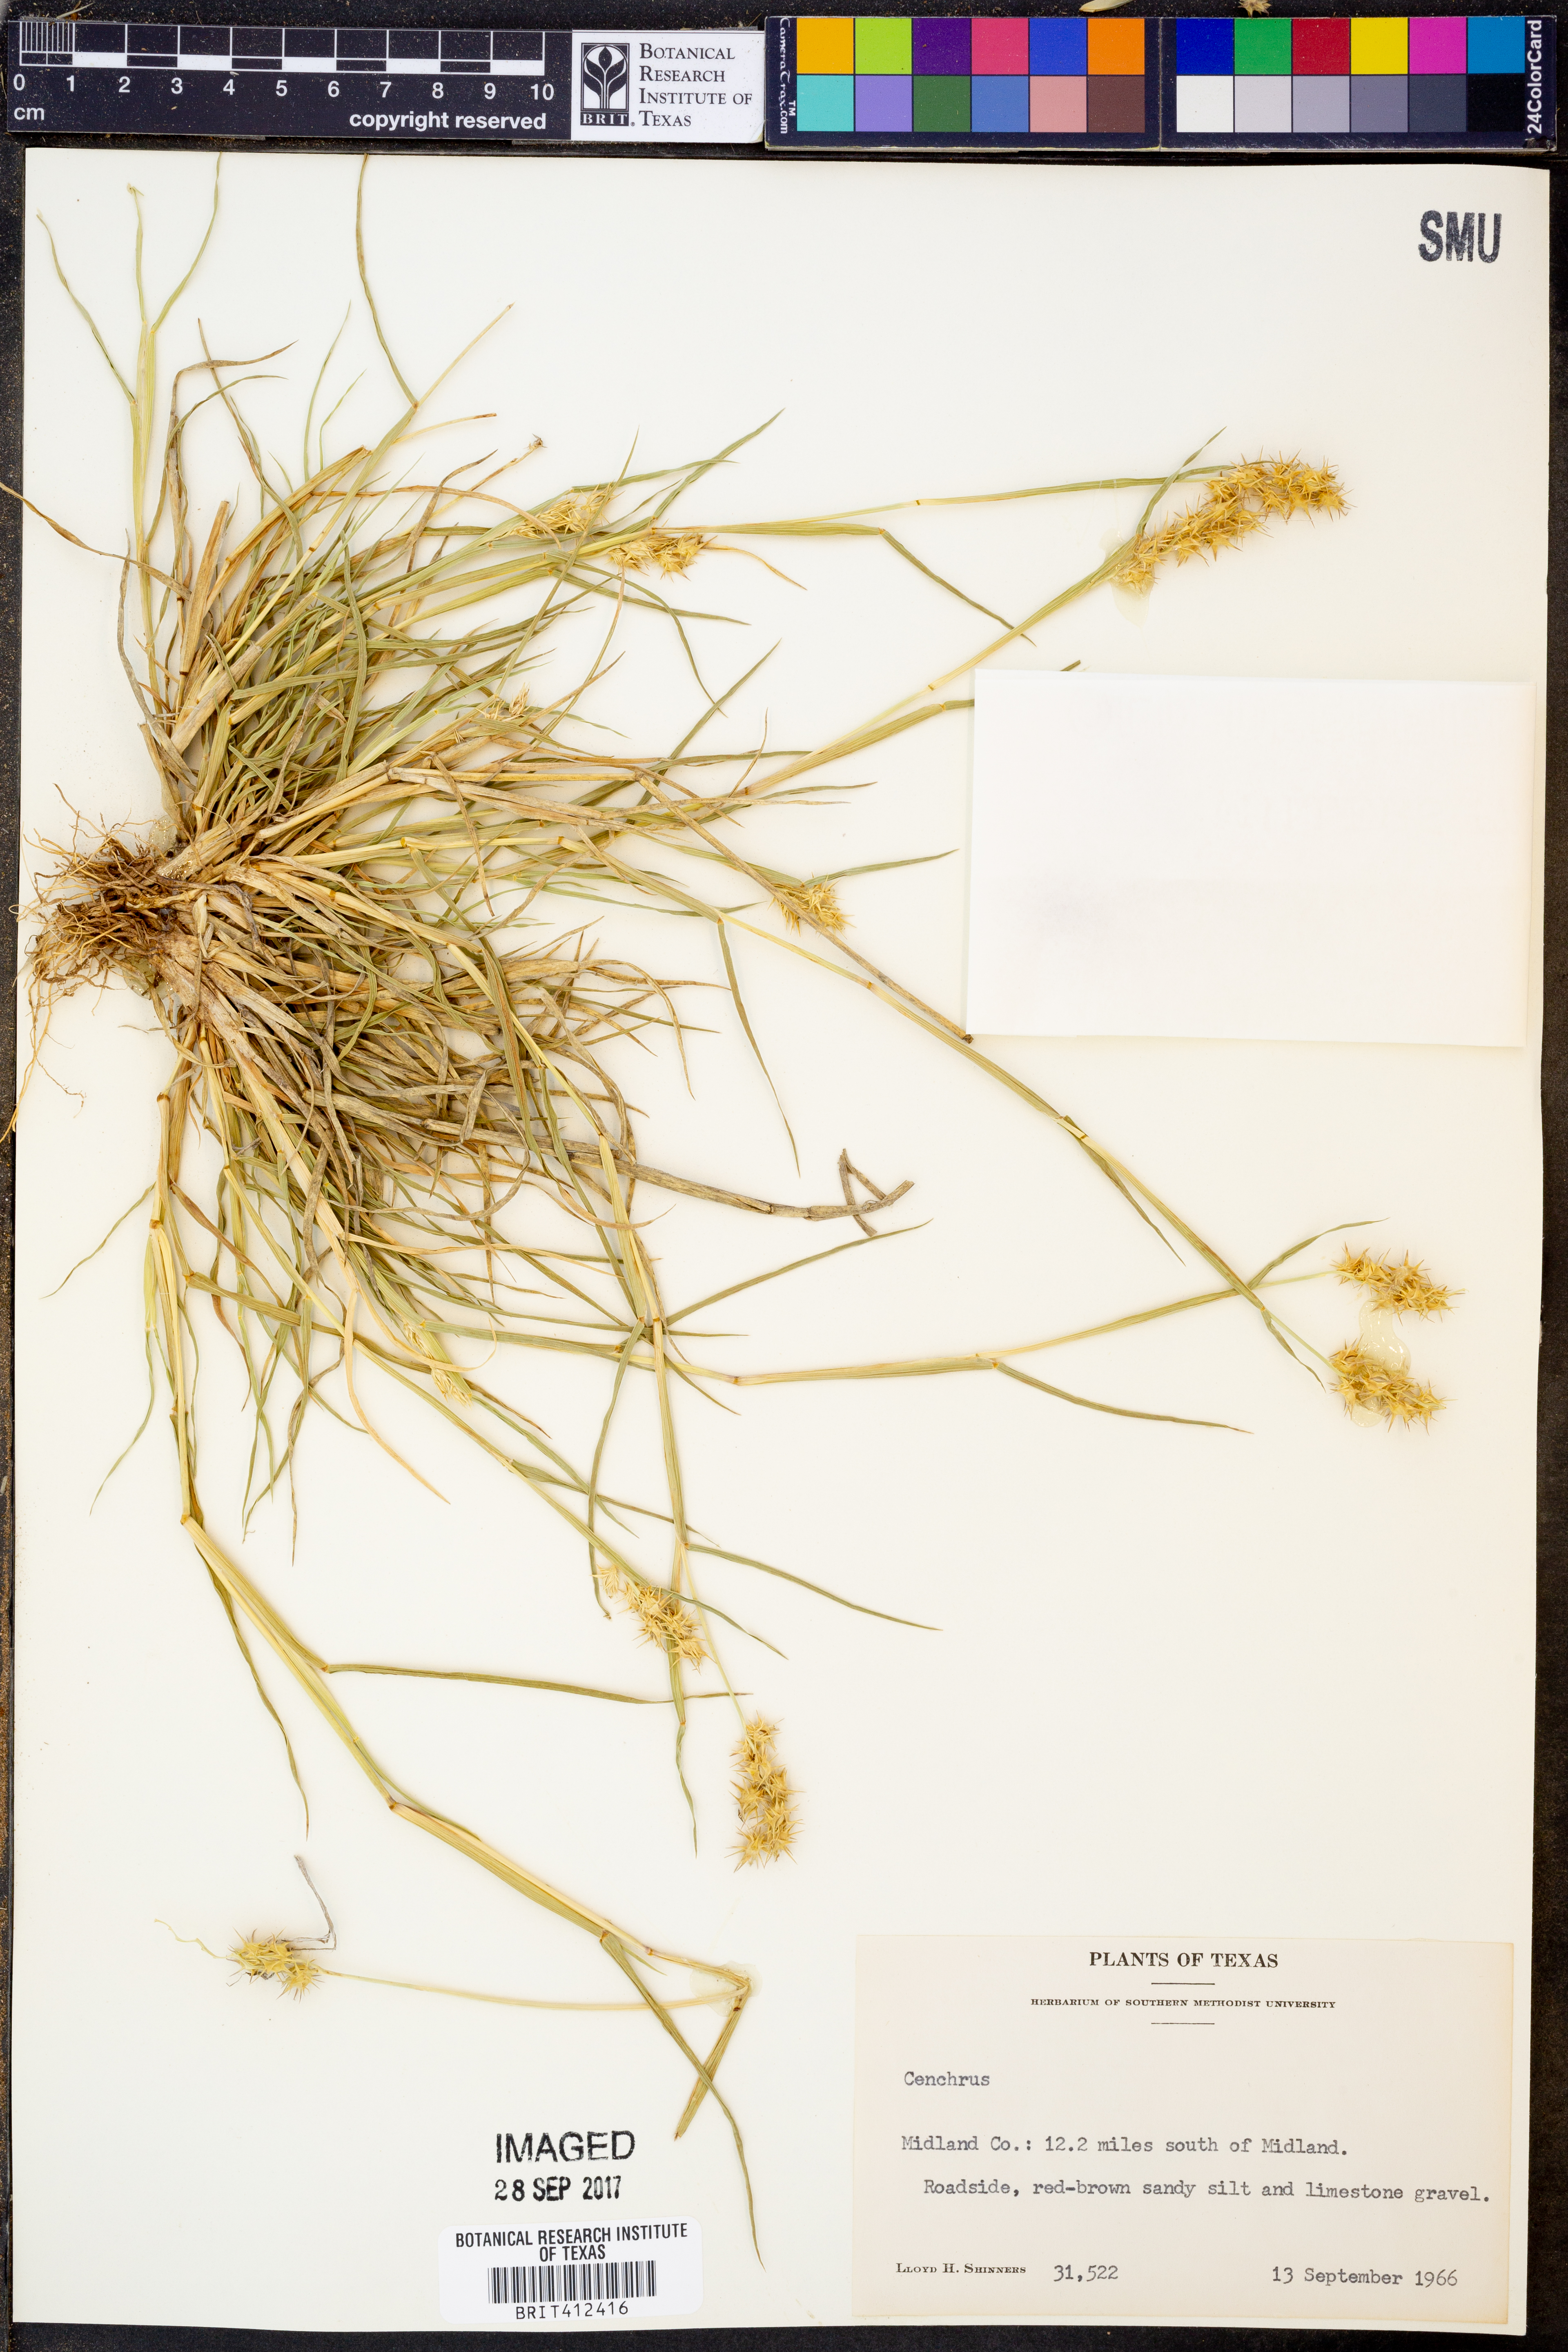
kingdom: Plantae
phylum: Tracheophyta
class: Liliopsida
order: Poales
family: Poaceae
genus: Cenchrus
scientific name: Cenchrus
